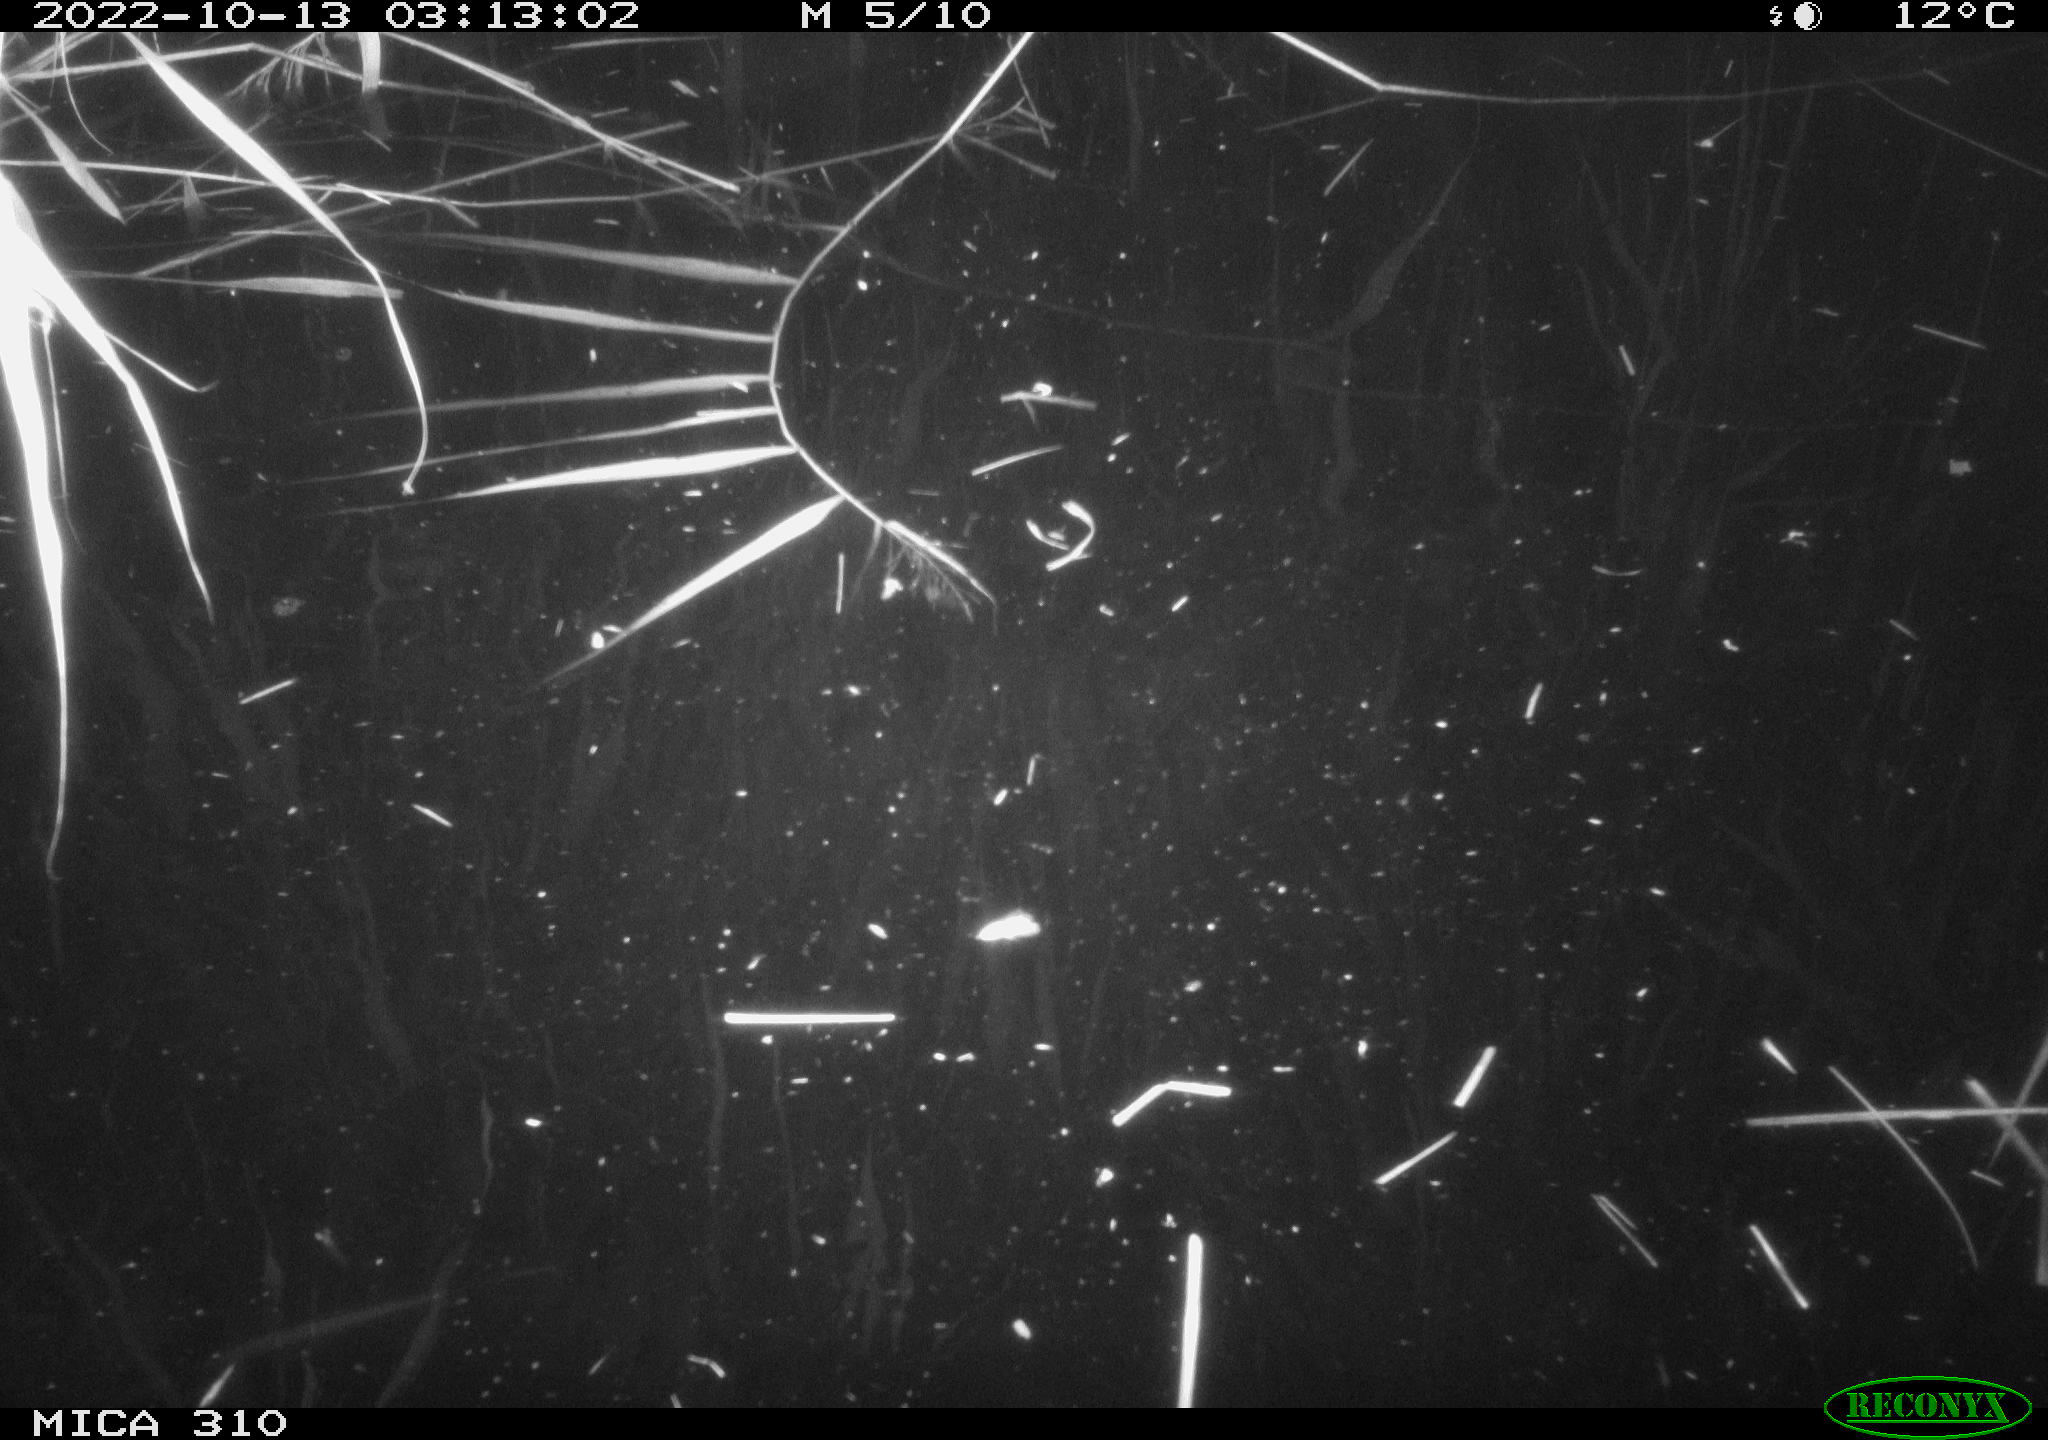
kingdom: Animalia
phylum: Chordata
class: Mammalia
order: Rodentia
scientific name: Rodentia
